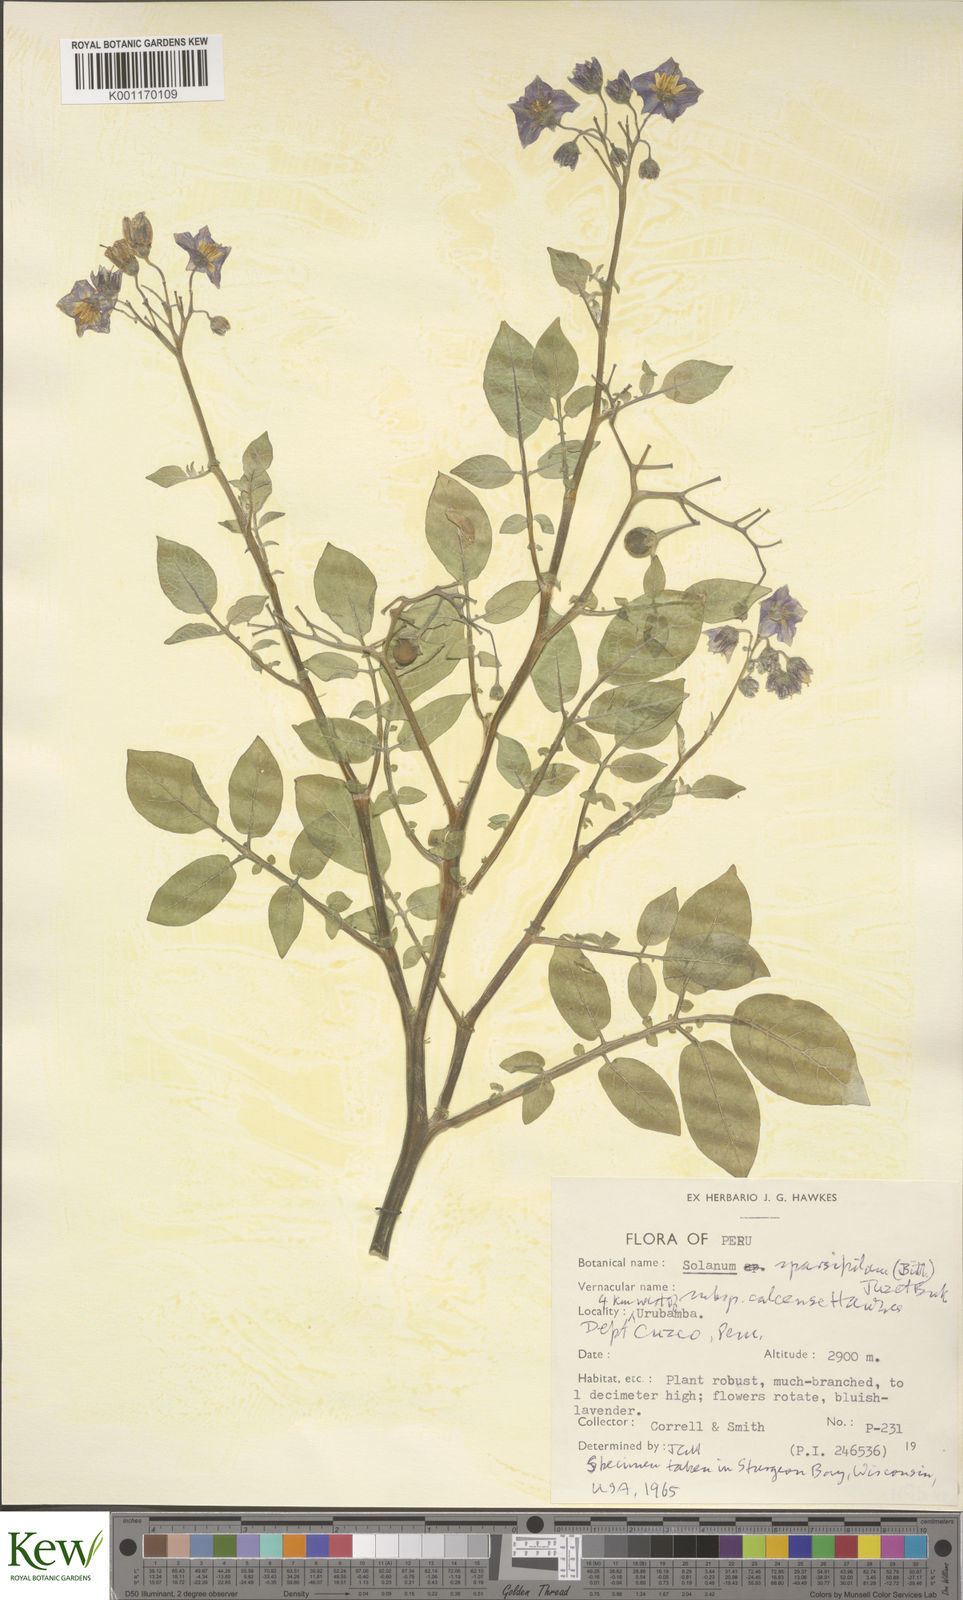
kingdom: Plantae
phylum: Tracheophyta
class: Magnoliopsida
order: Solanales
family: Solanaceae
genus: Solanum
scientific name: Solanum brevicaule
